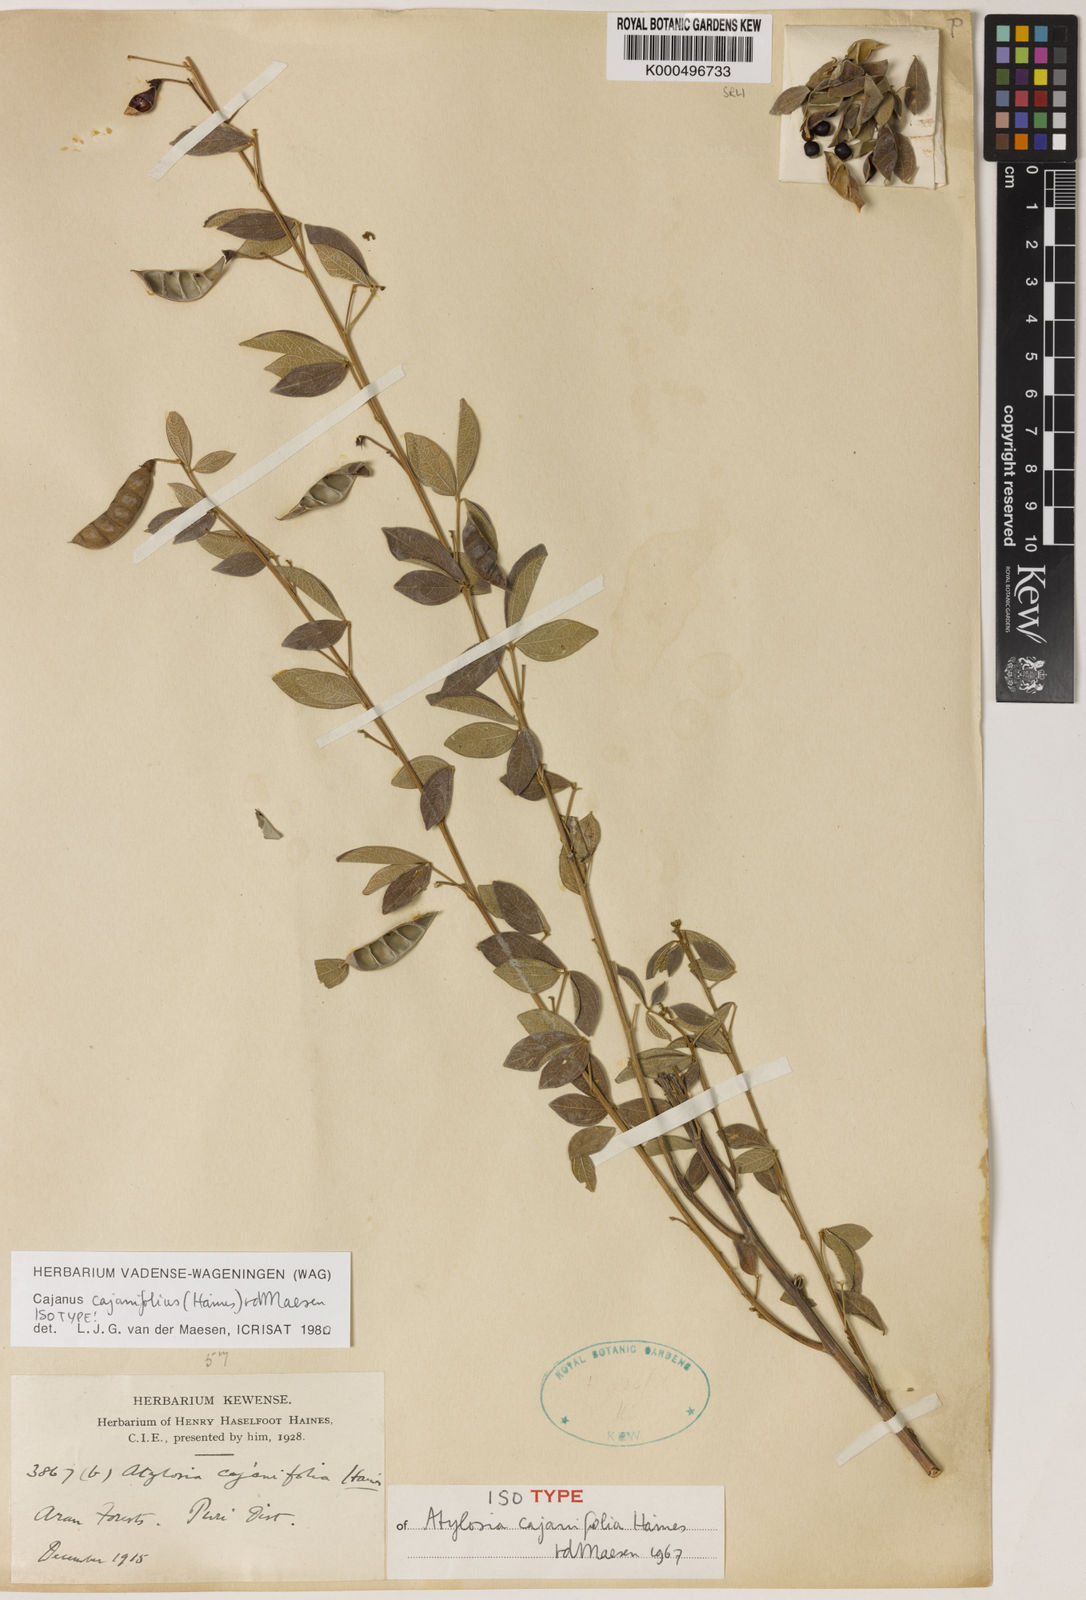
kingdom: Plantae
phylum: Tracheophyta
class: Magnoliopsida
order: Fabales
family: Fabaceae
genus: Cajanus
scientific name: Cajanus cajanifolius
